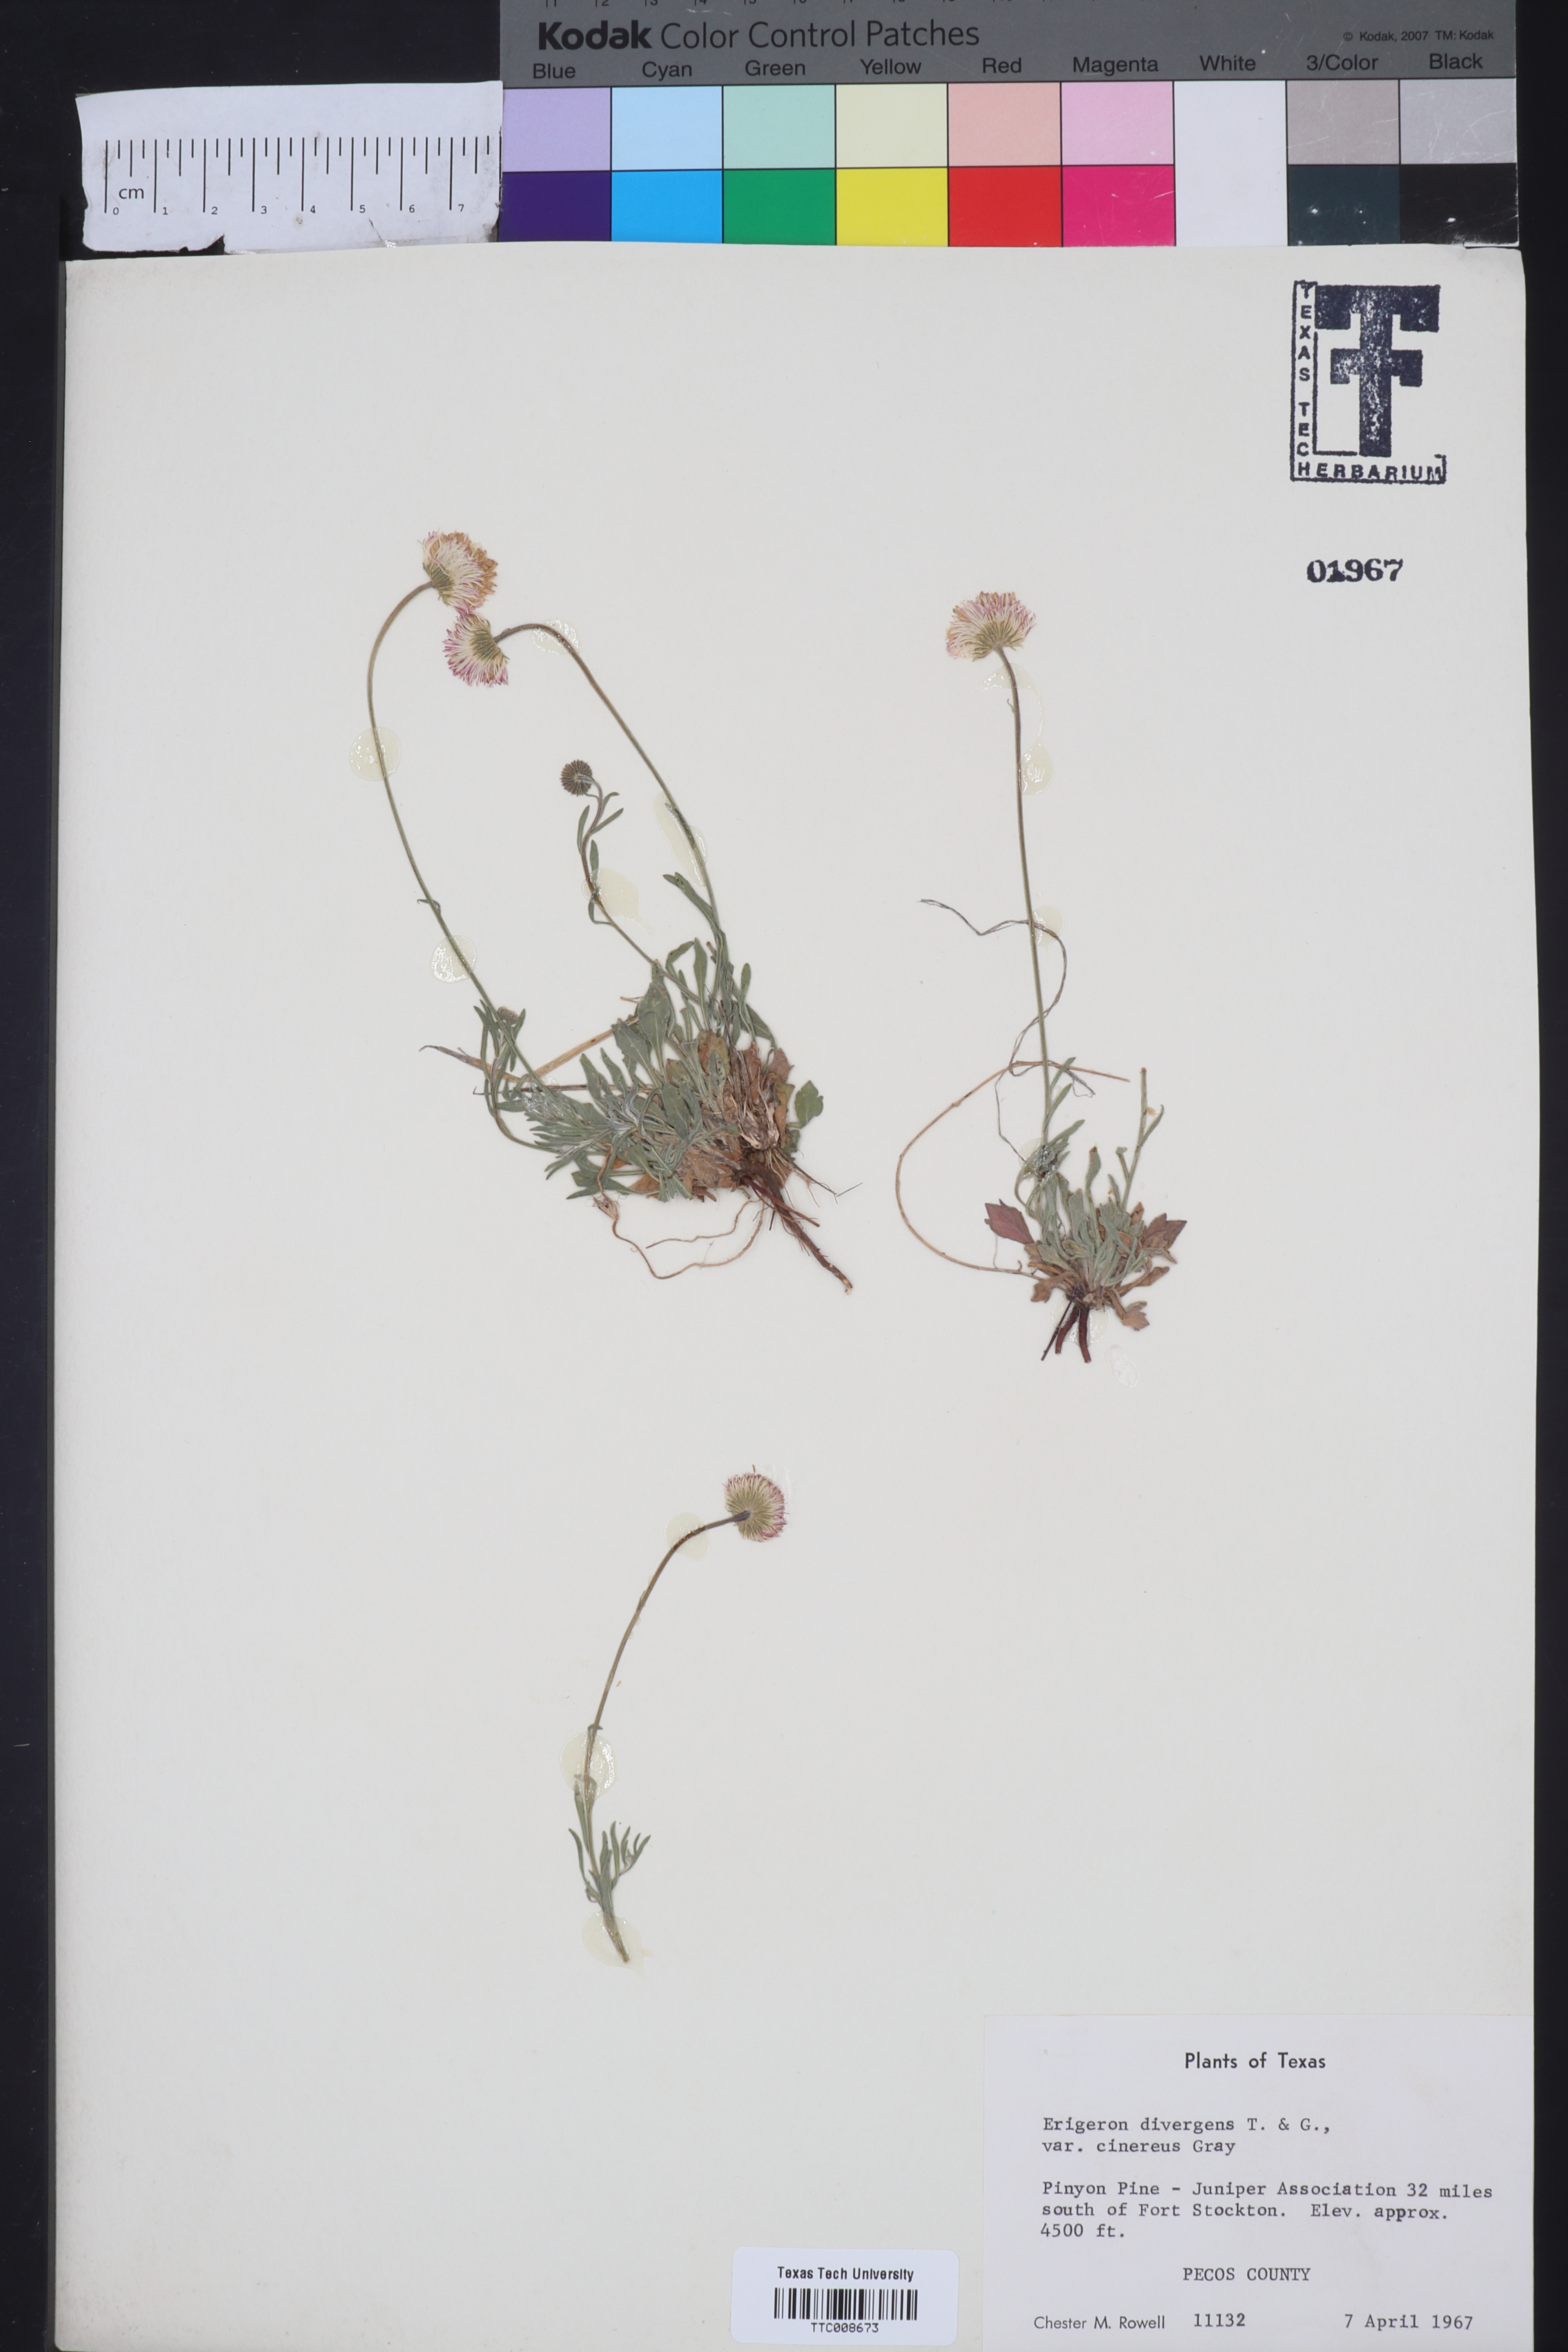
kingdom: Plantae
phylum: Tracheophyta
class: Magnoliopsida
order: Asterales
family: Asteraceae
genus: Erigeron
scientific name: Erigeron tracyi
